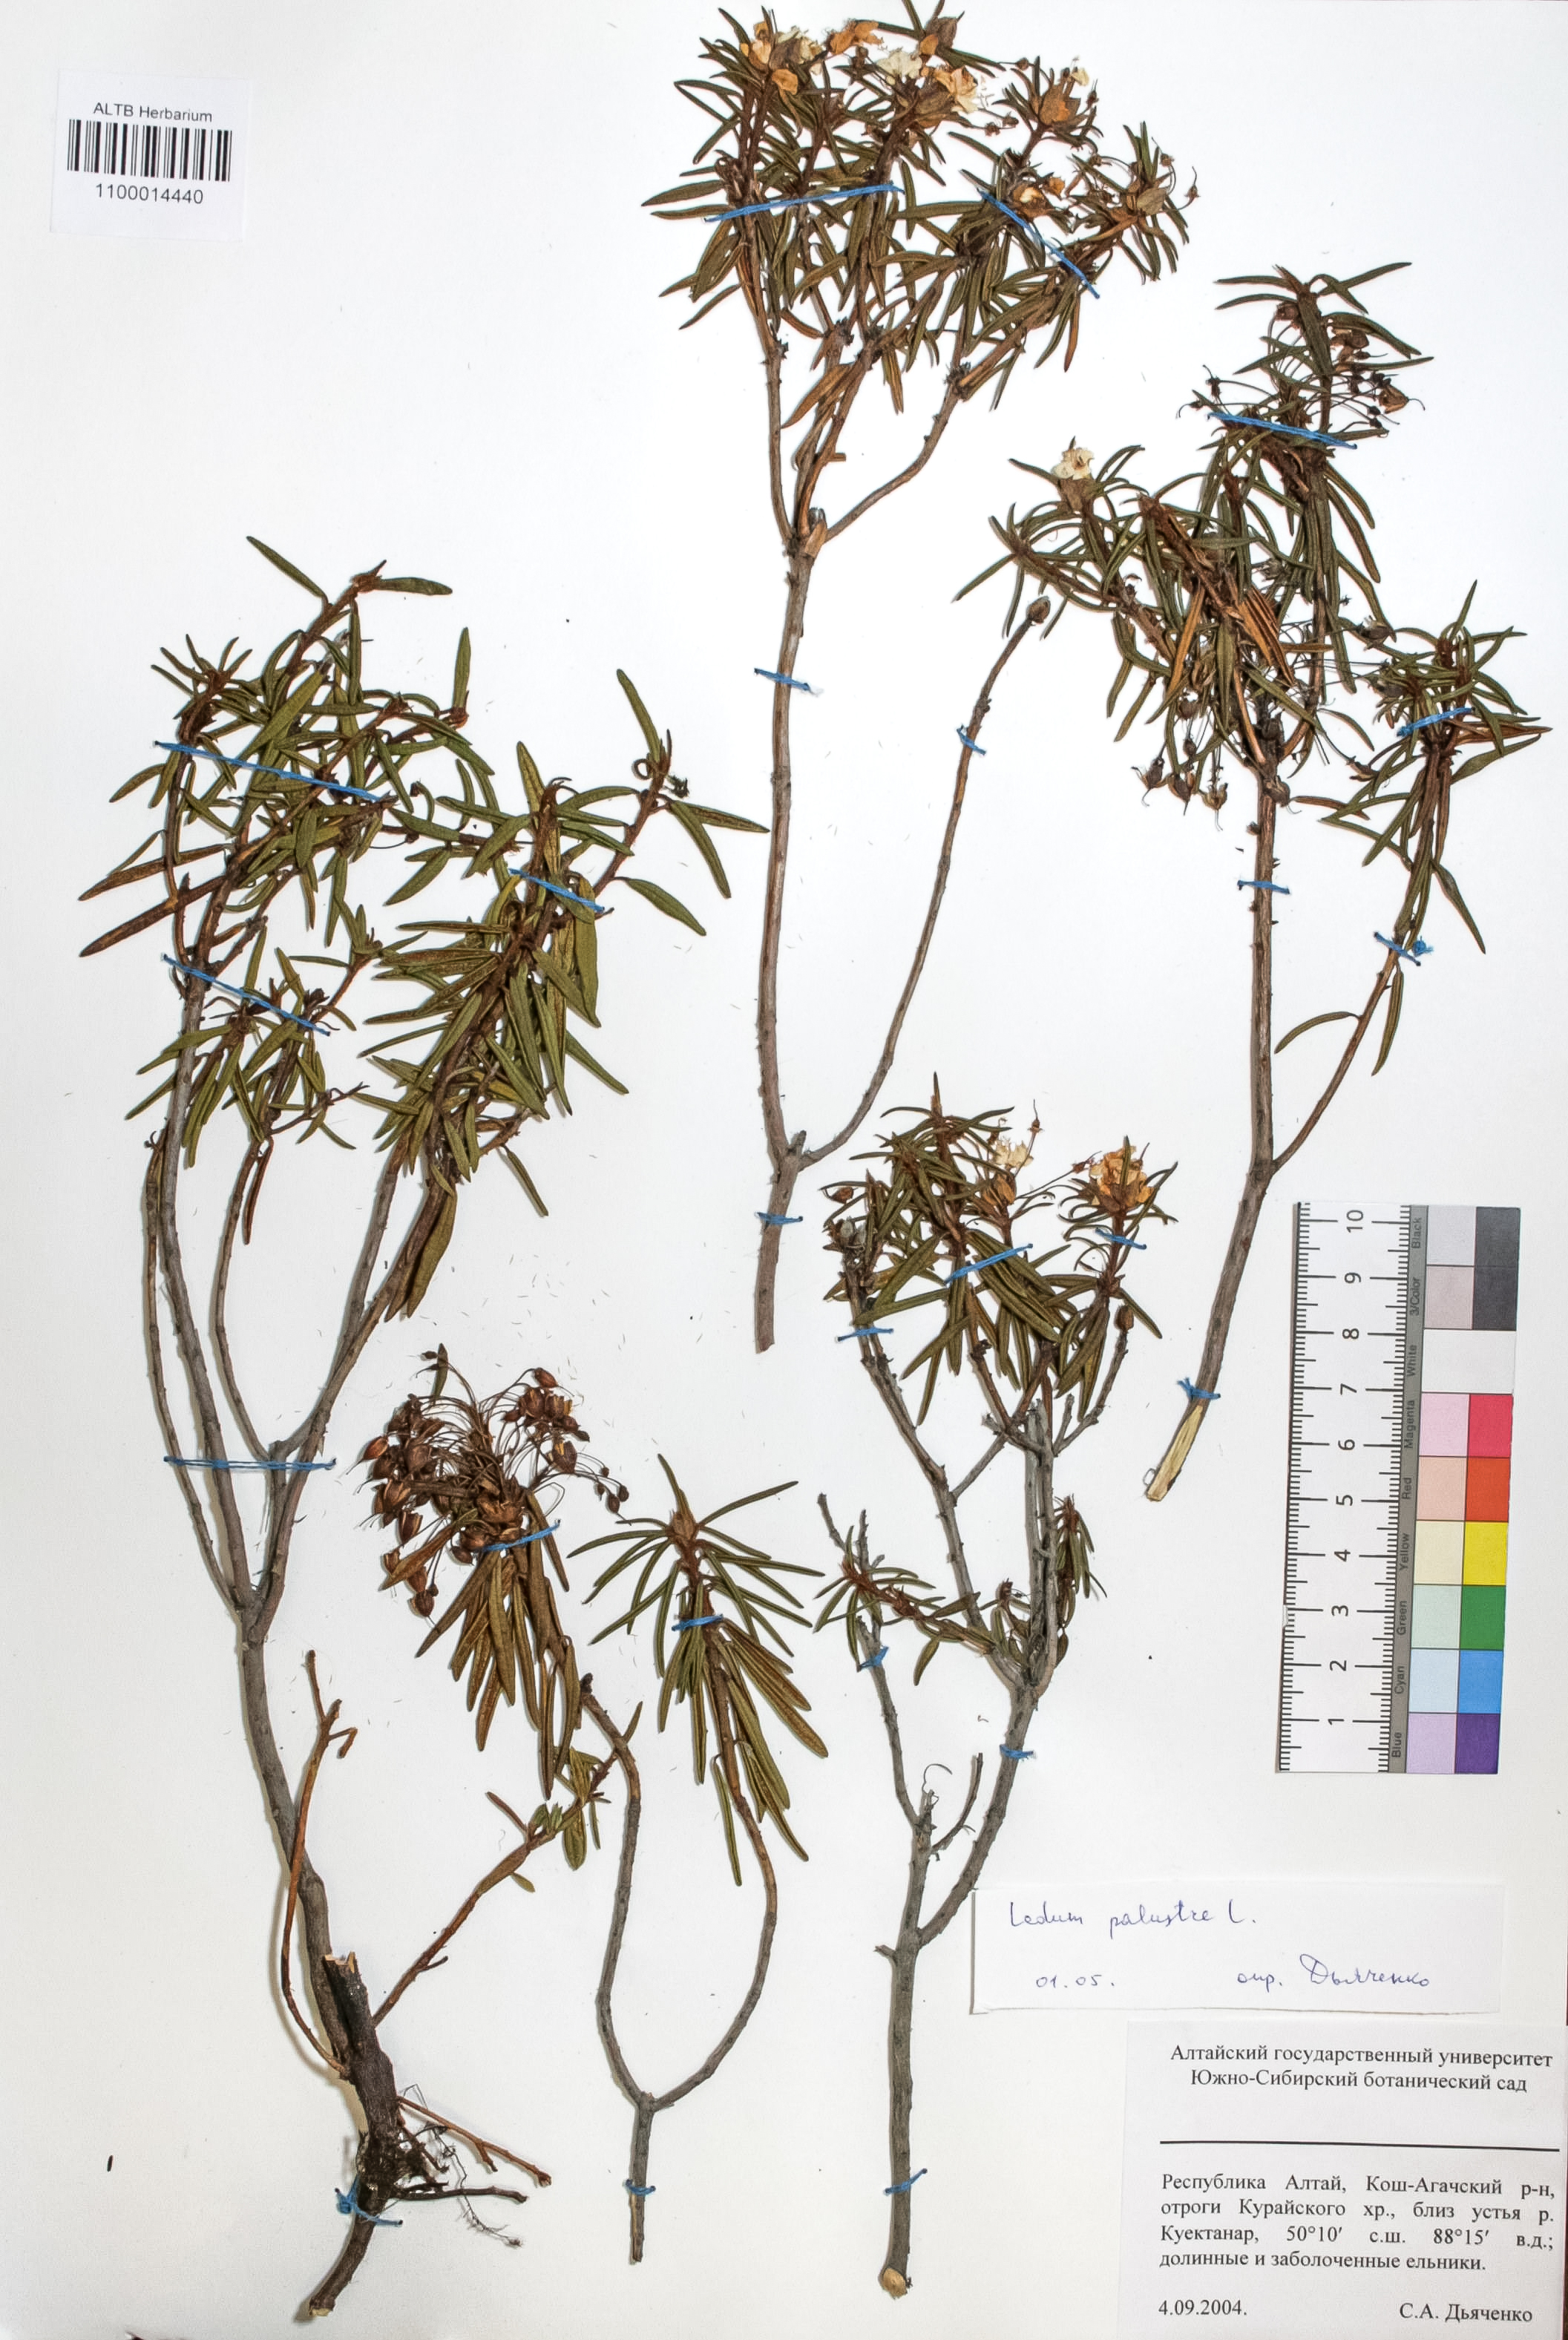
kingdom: Plantae
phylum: Tracheophyta
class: Magnoliopsida
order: Ericales
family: Ericaceae
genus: Rhododendron
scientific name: Rhododendron tomentosum
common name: Marsh labrador tea
